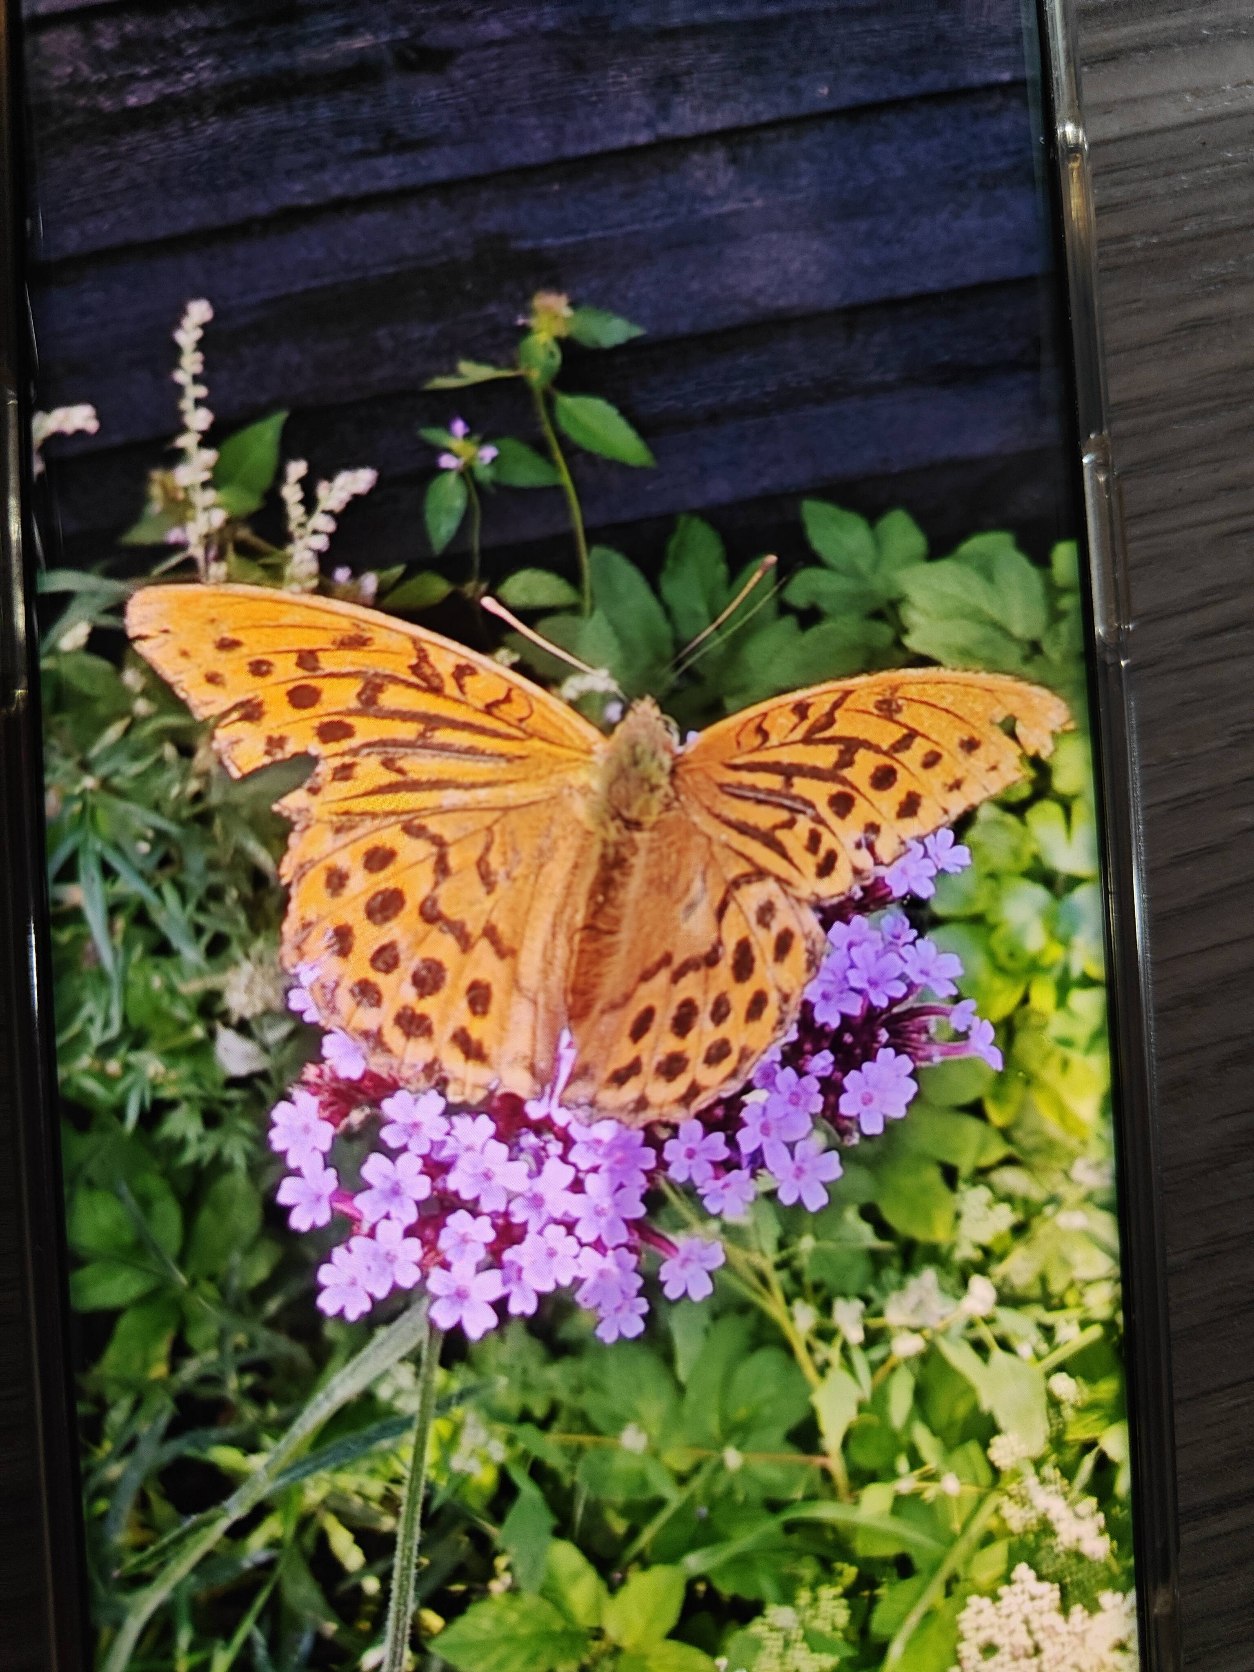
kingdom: Animalia
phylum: Arthropoda
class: Insecta
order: Lepidoptera
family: Nymphalidae
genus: Argynnis
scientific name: Argynnis paphia
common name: Kejserkåbe
